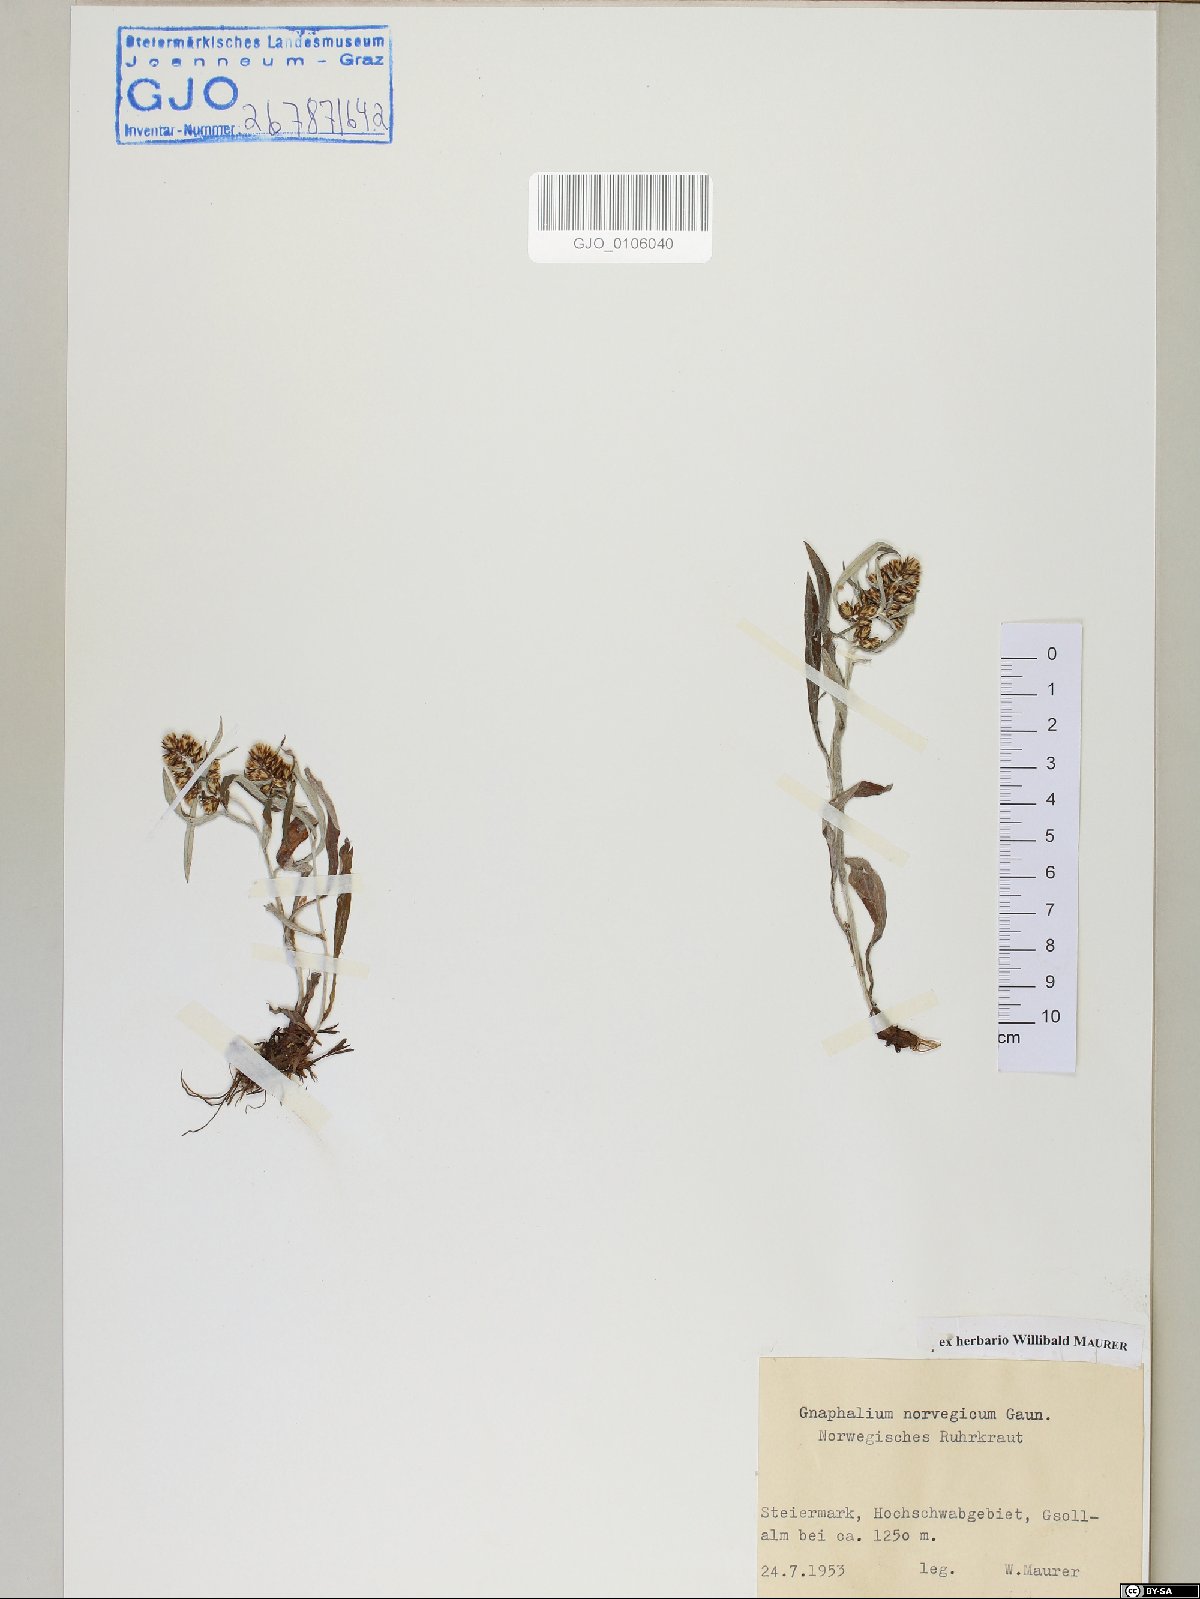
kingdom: Plantae
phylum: Tracheophyta
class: Magnoliopsida
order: Asterales
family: Asteraceae
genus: Omalotheca
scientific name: Omalotheca norvegica
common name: Norwegian arctic-cudweed
